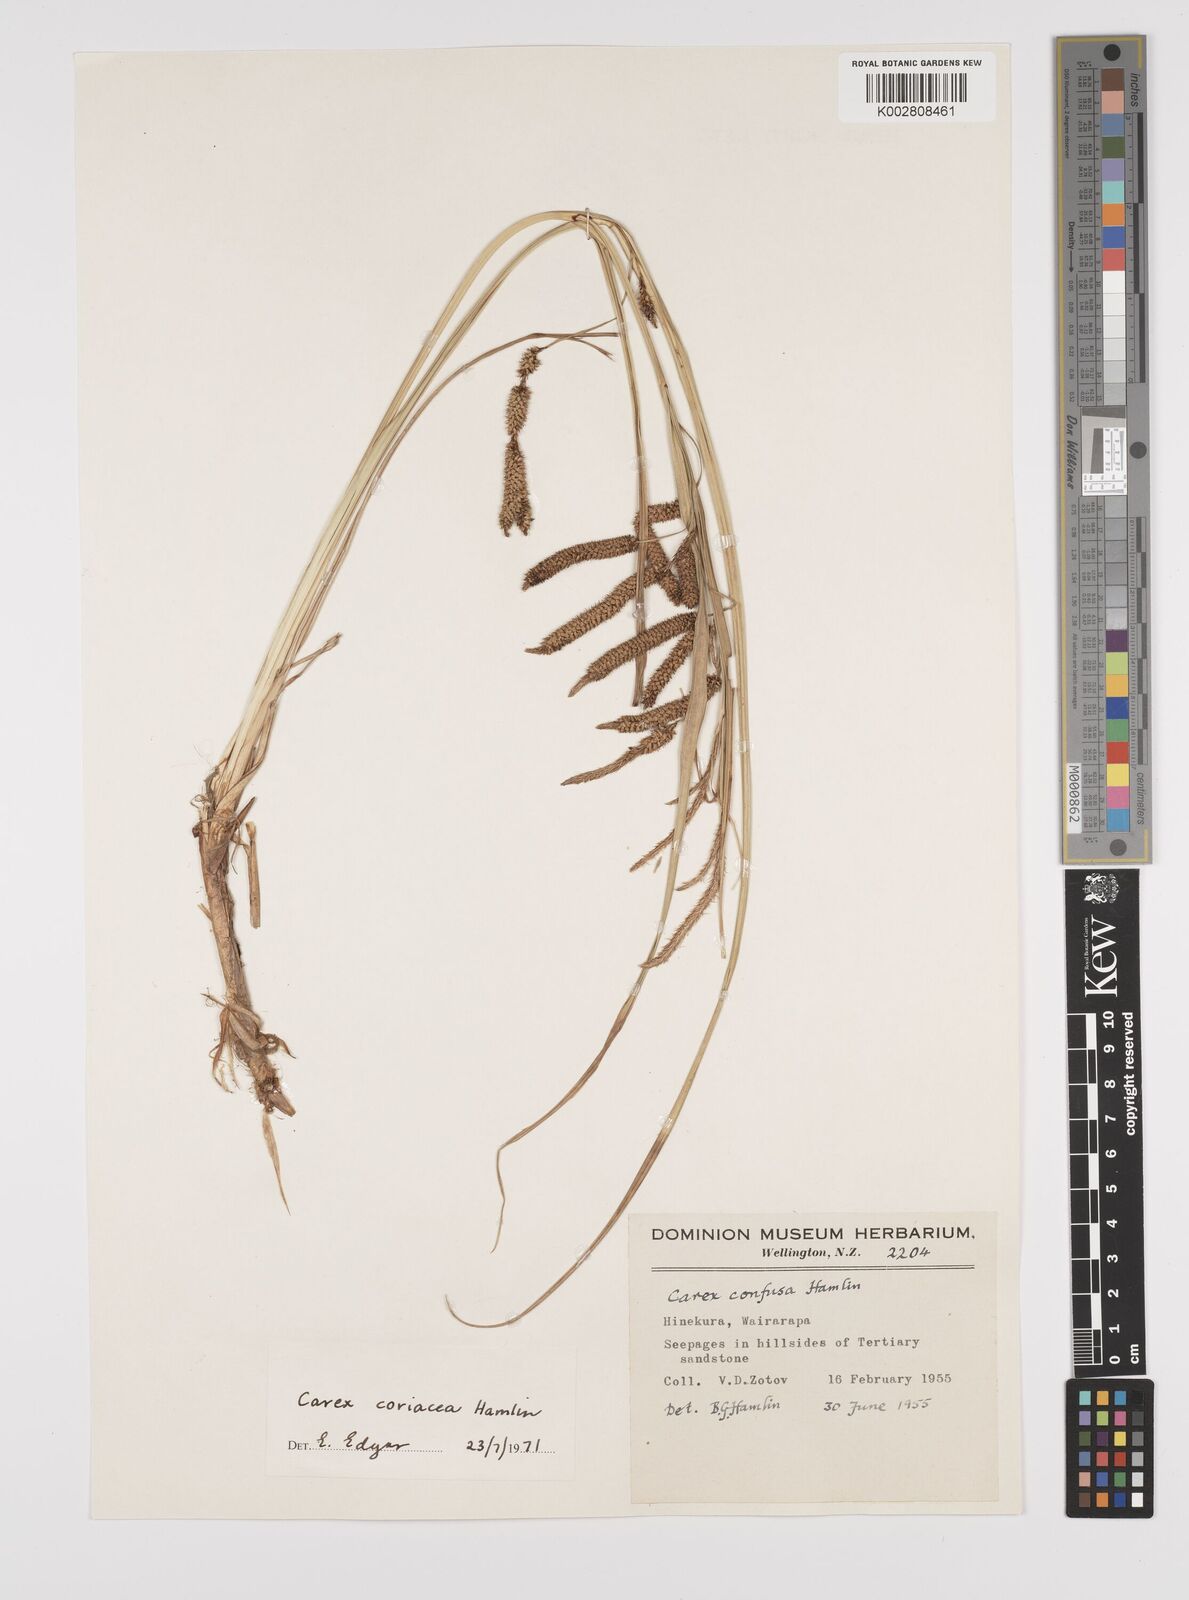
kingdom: Plantae
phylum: Tracheophyta
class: Liliopsida
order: Poales
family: Cyperaceae
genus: Carex
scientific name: Carex coriacea
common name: Rautahi
